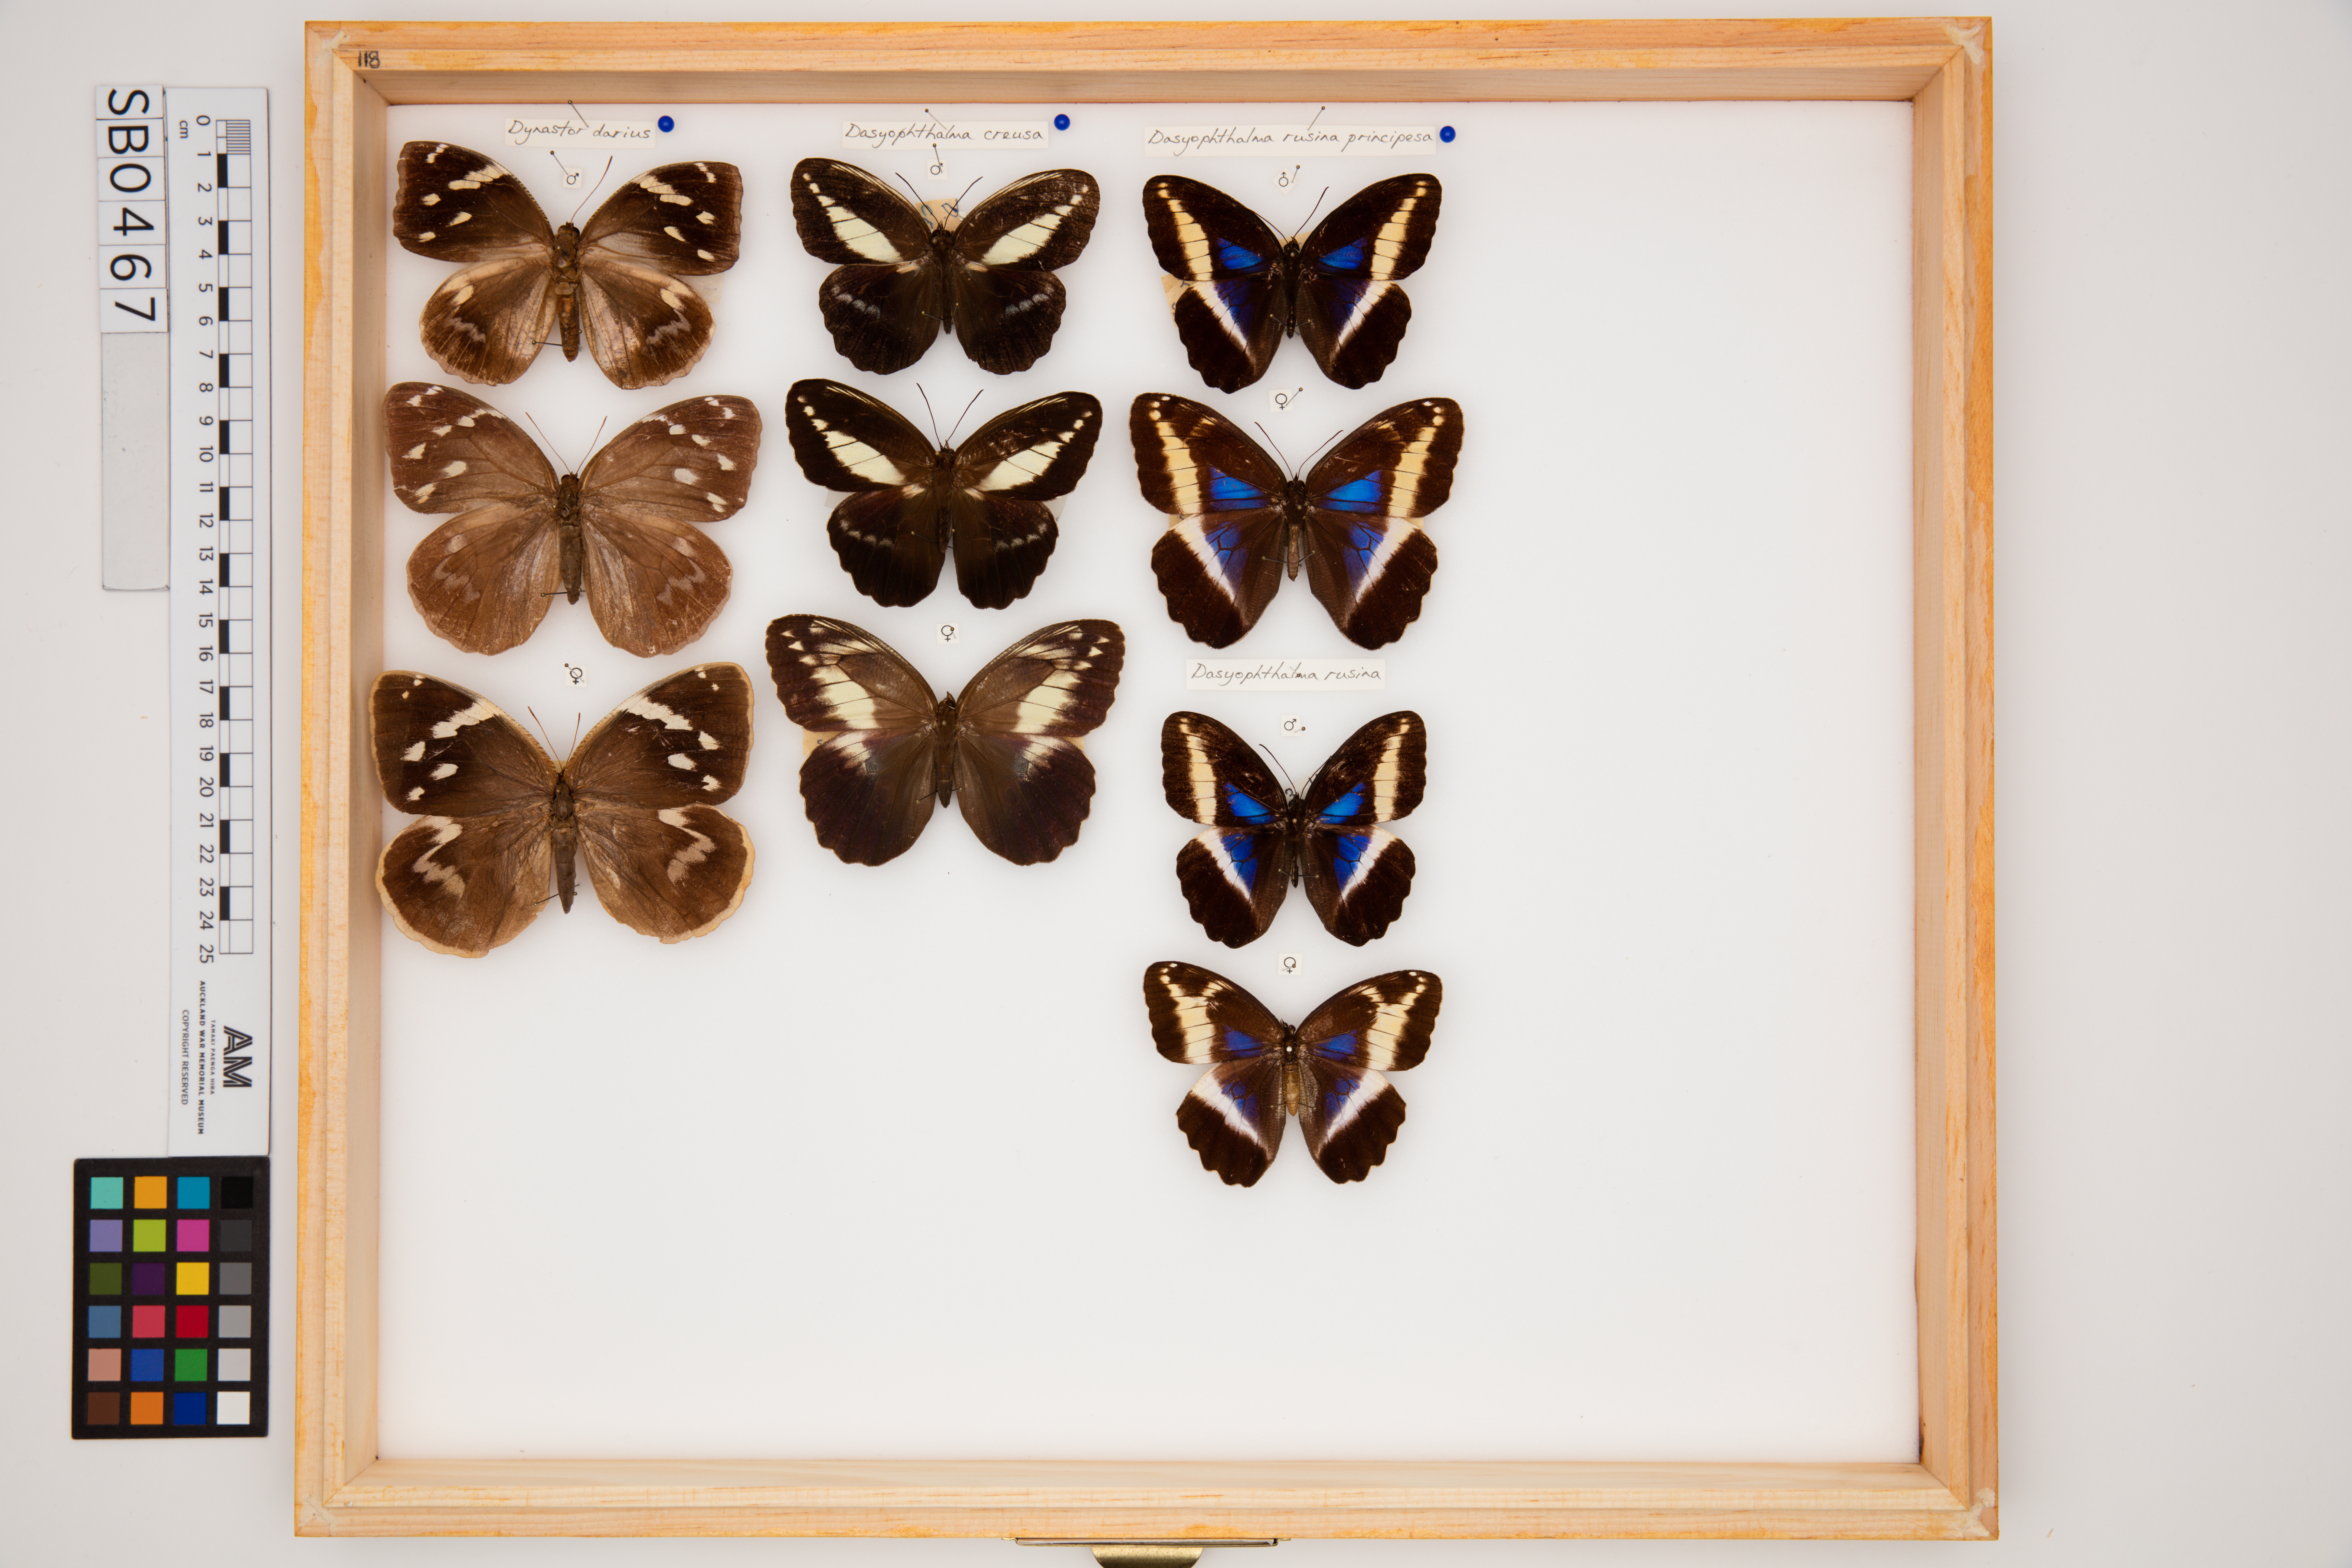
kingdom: Animalia
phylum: Arthropoda
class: Insecta
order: Lepidoptera
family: Nymphalidae
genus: Dasyophthalma
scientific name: Dasyophthalma rusina
